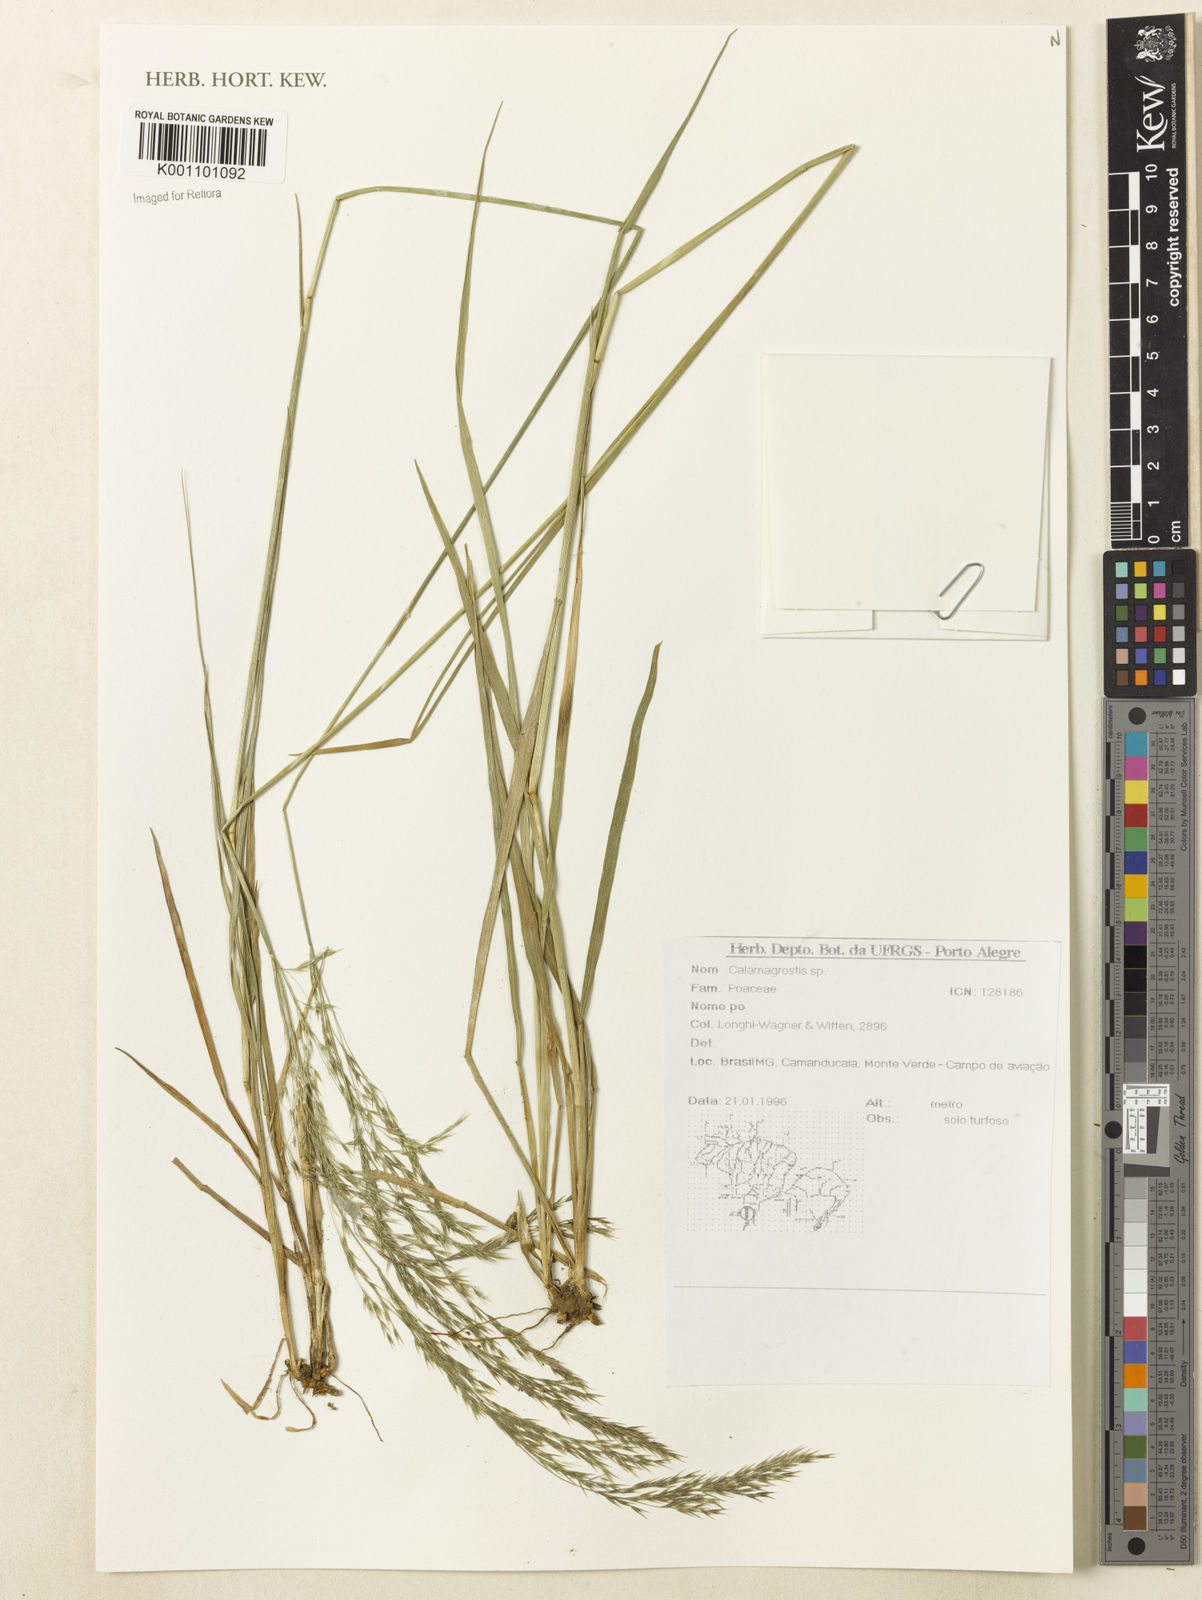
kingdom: Plantae
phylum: Tracheophyta
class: Liliopsida
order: Poales
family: Poaceae
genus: Calamagrostis
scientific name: Calamagrostis
